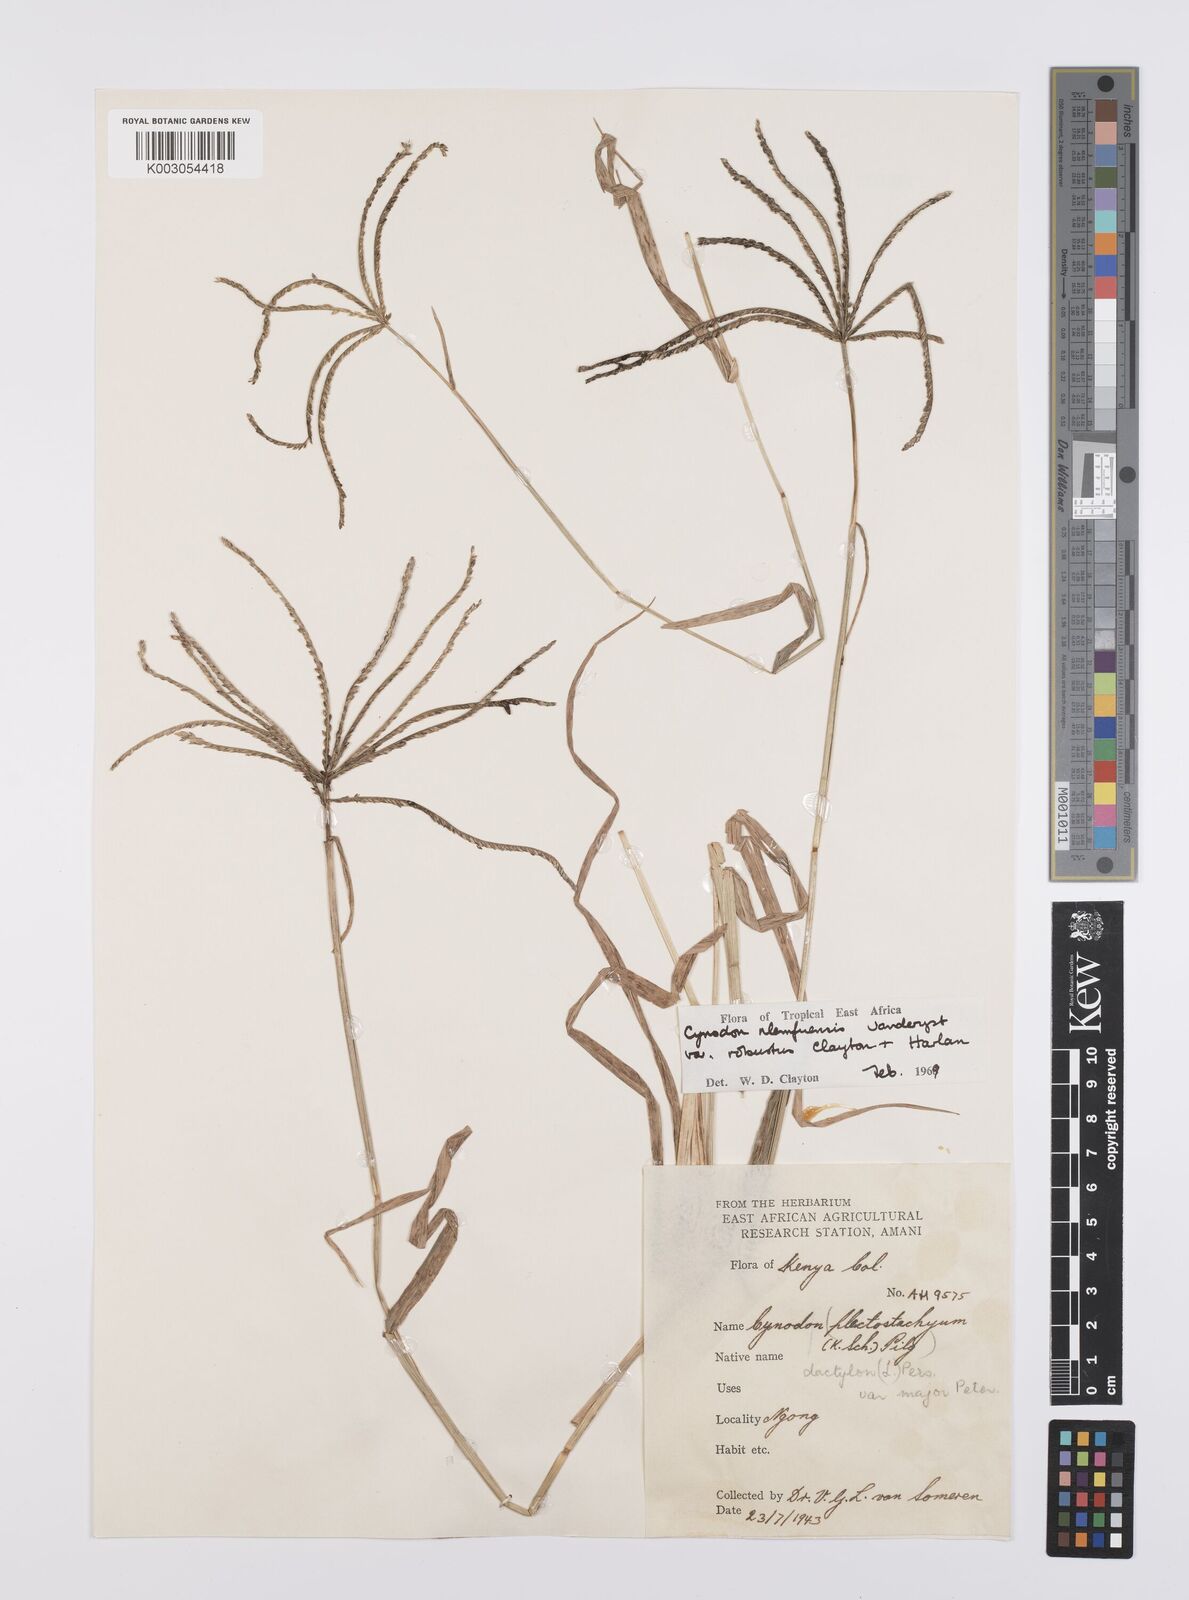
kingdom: Plantae
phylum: Tracheophyta
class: Liliopsida
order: Poales
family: Poaceae
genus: Cynodon
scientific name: Cynodon nlemfuensis
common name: African bermudagrass
